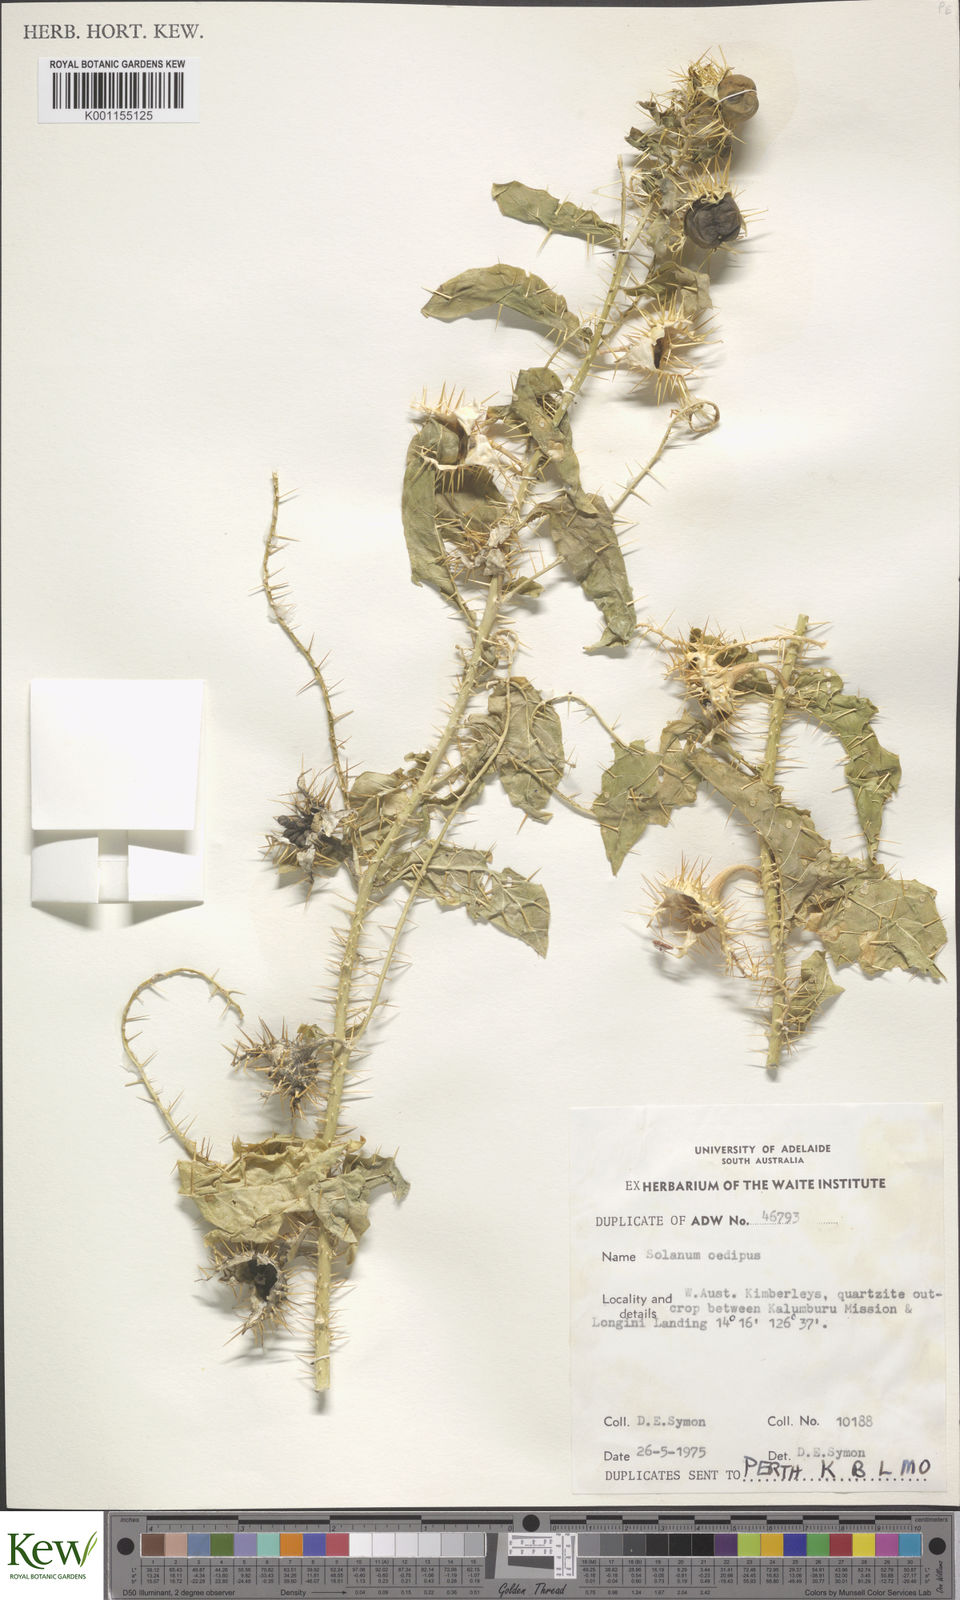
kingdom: Plantae
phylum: Tracheophyta
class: Magnoliopsida
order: Solanales
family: Solanaceae
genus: Solanum
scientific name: Solanum oedipus
